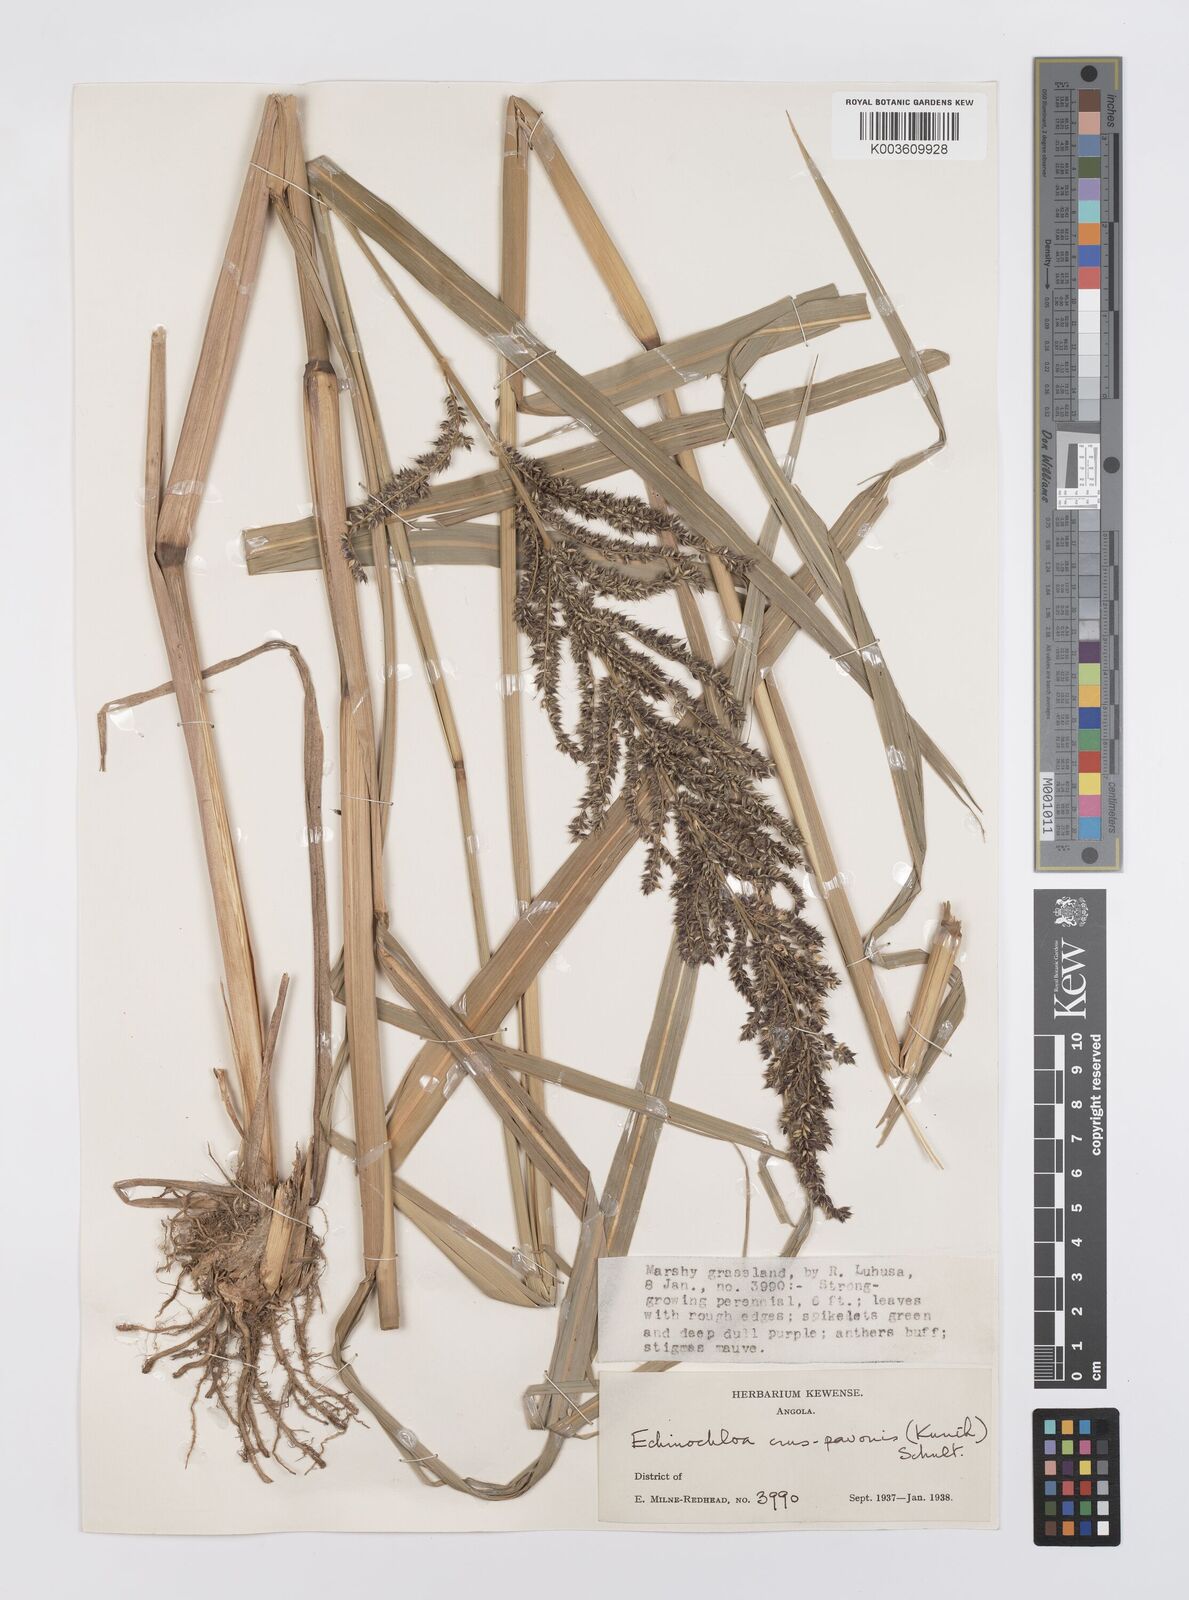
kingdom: Plantae
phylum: Tracheophyta
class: Liliopsida
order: Poales
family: Poaceae
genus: Echinochloa
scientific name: Echinochloa crus-pavonis
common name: Gulf cockspur grass
